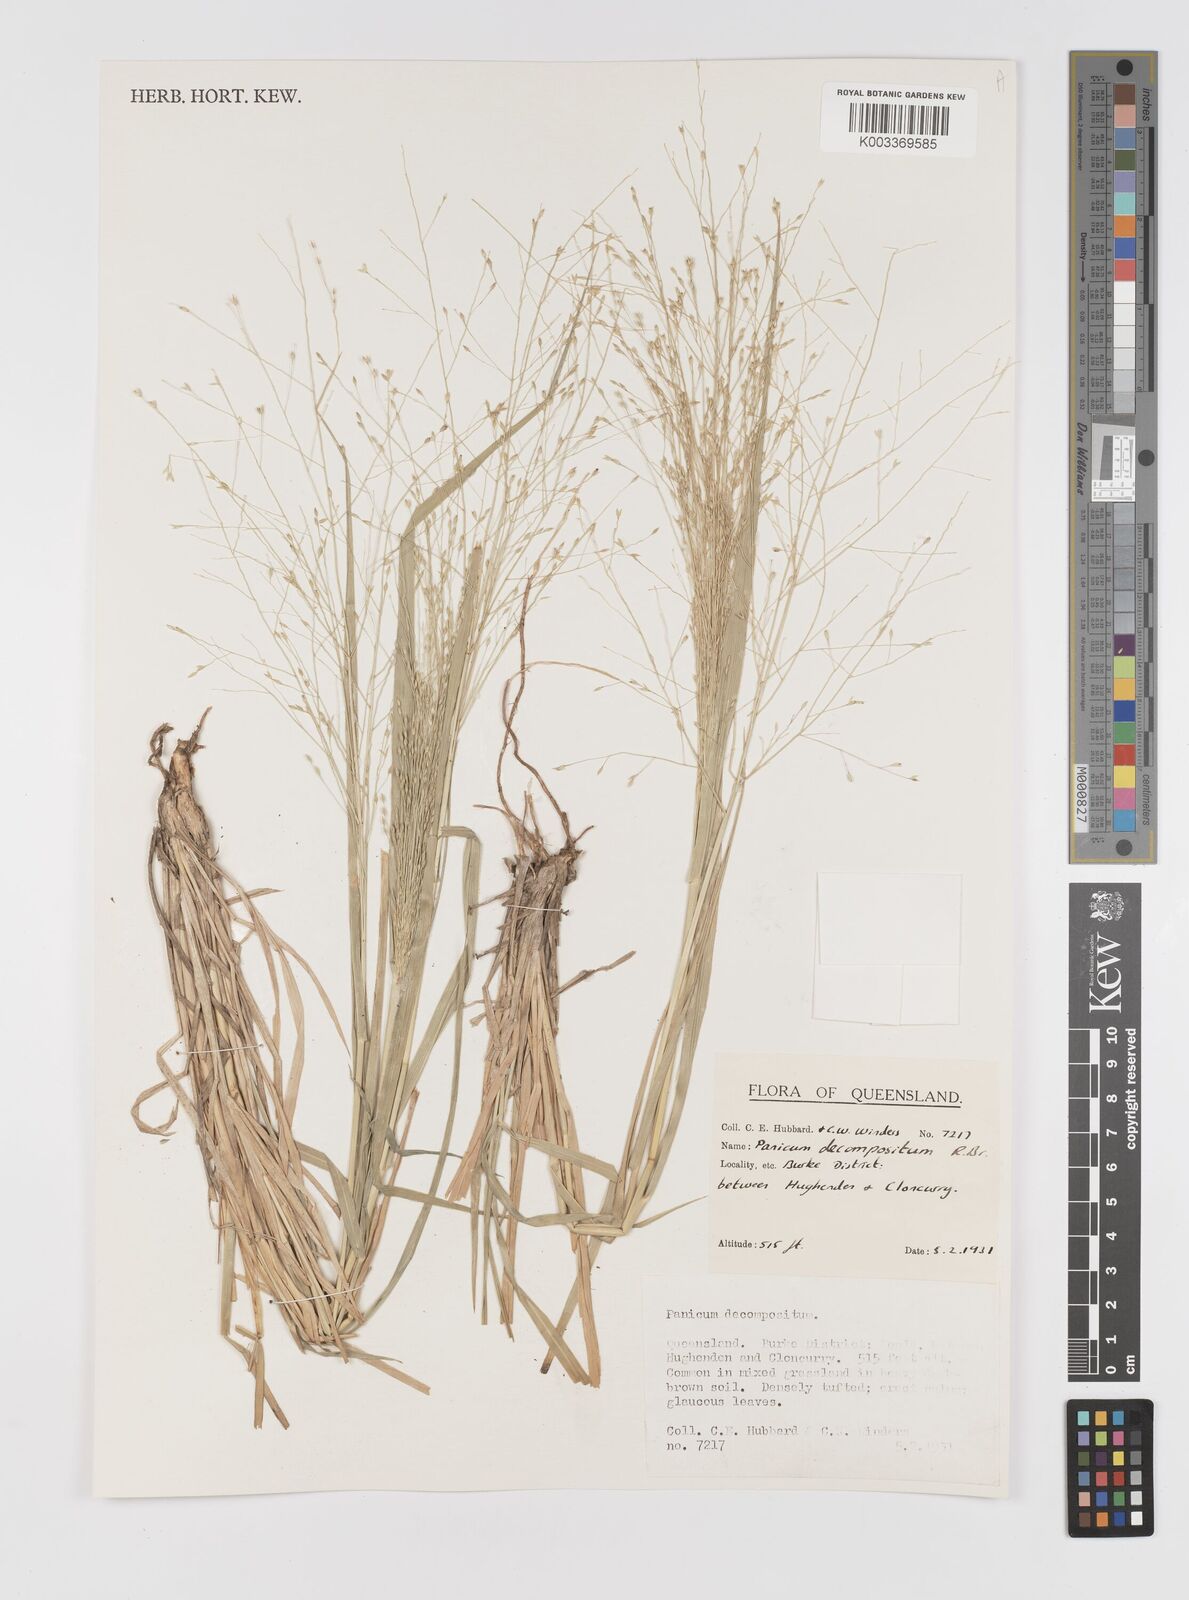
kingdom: Plantae
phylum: Tracheophyta
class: Liliopsida
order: Poales
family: Poaceae
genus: Panicum
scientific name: Panicum decompositum
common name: Australian millet
